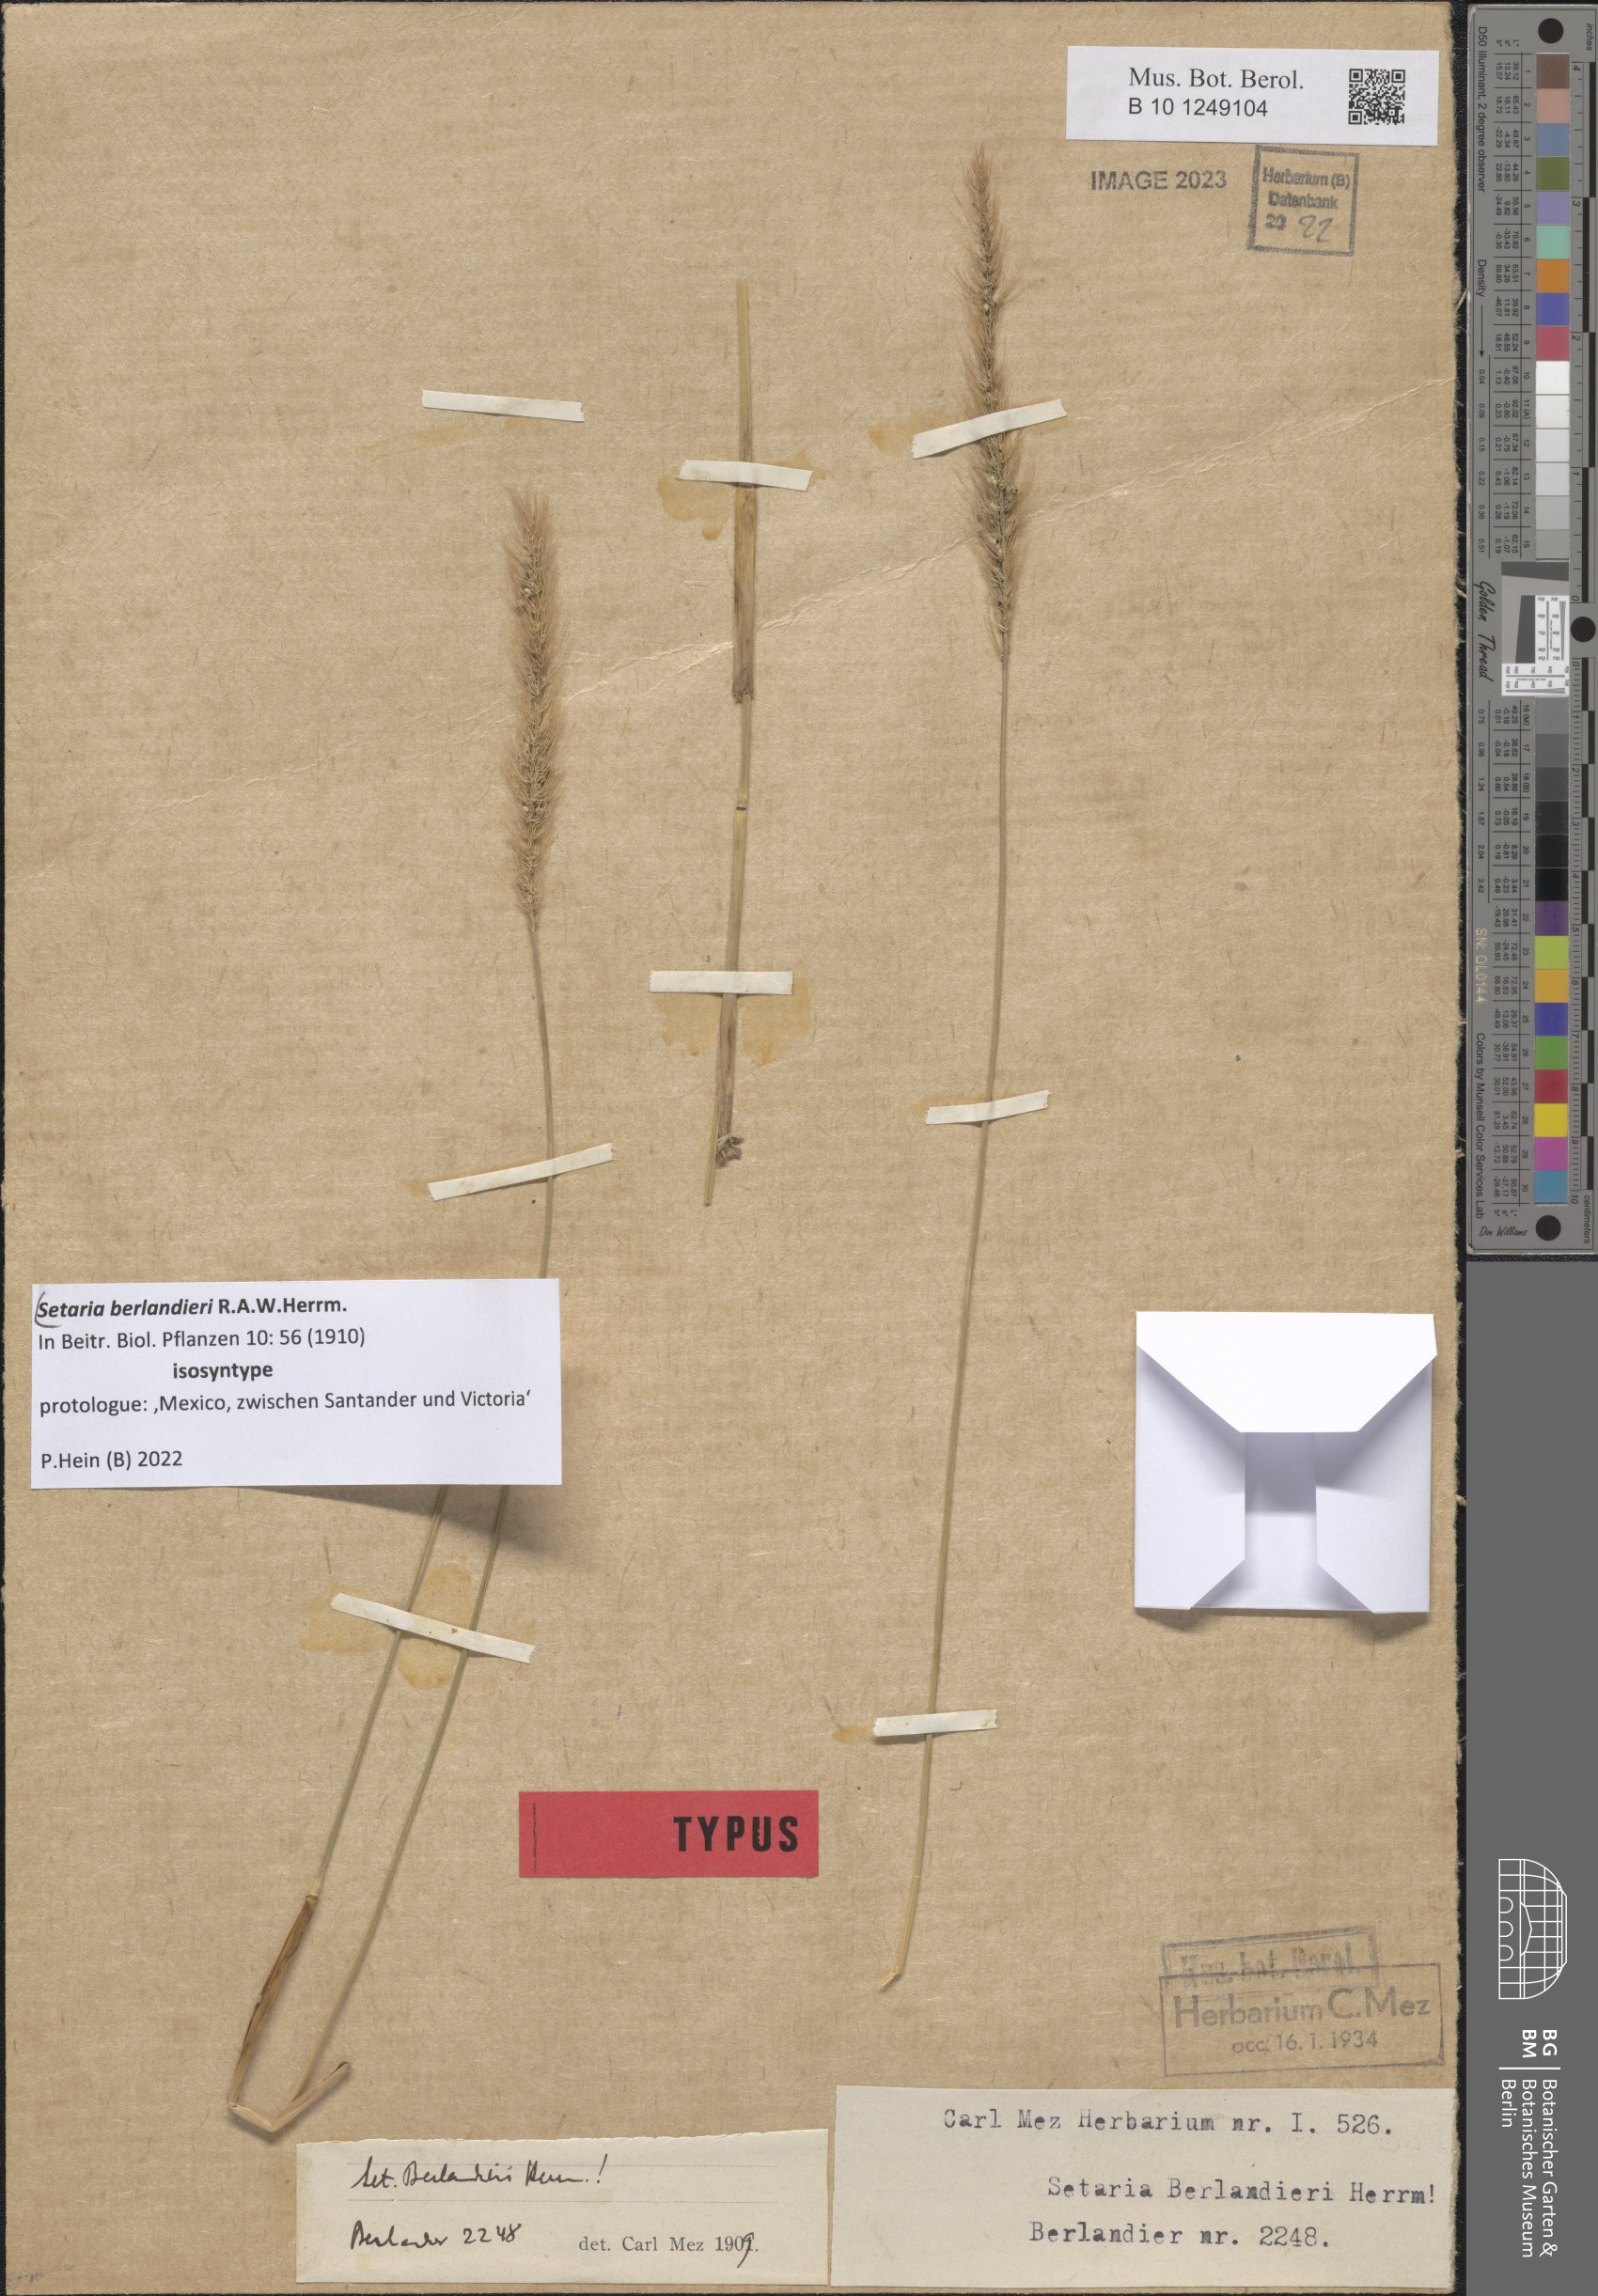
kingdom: Plantae
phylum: Tracheophyta
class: Liliopsida
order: Poales
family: Poaceae
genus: Setaria
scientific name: Setaria latifolia
